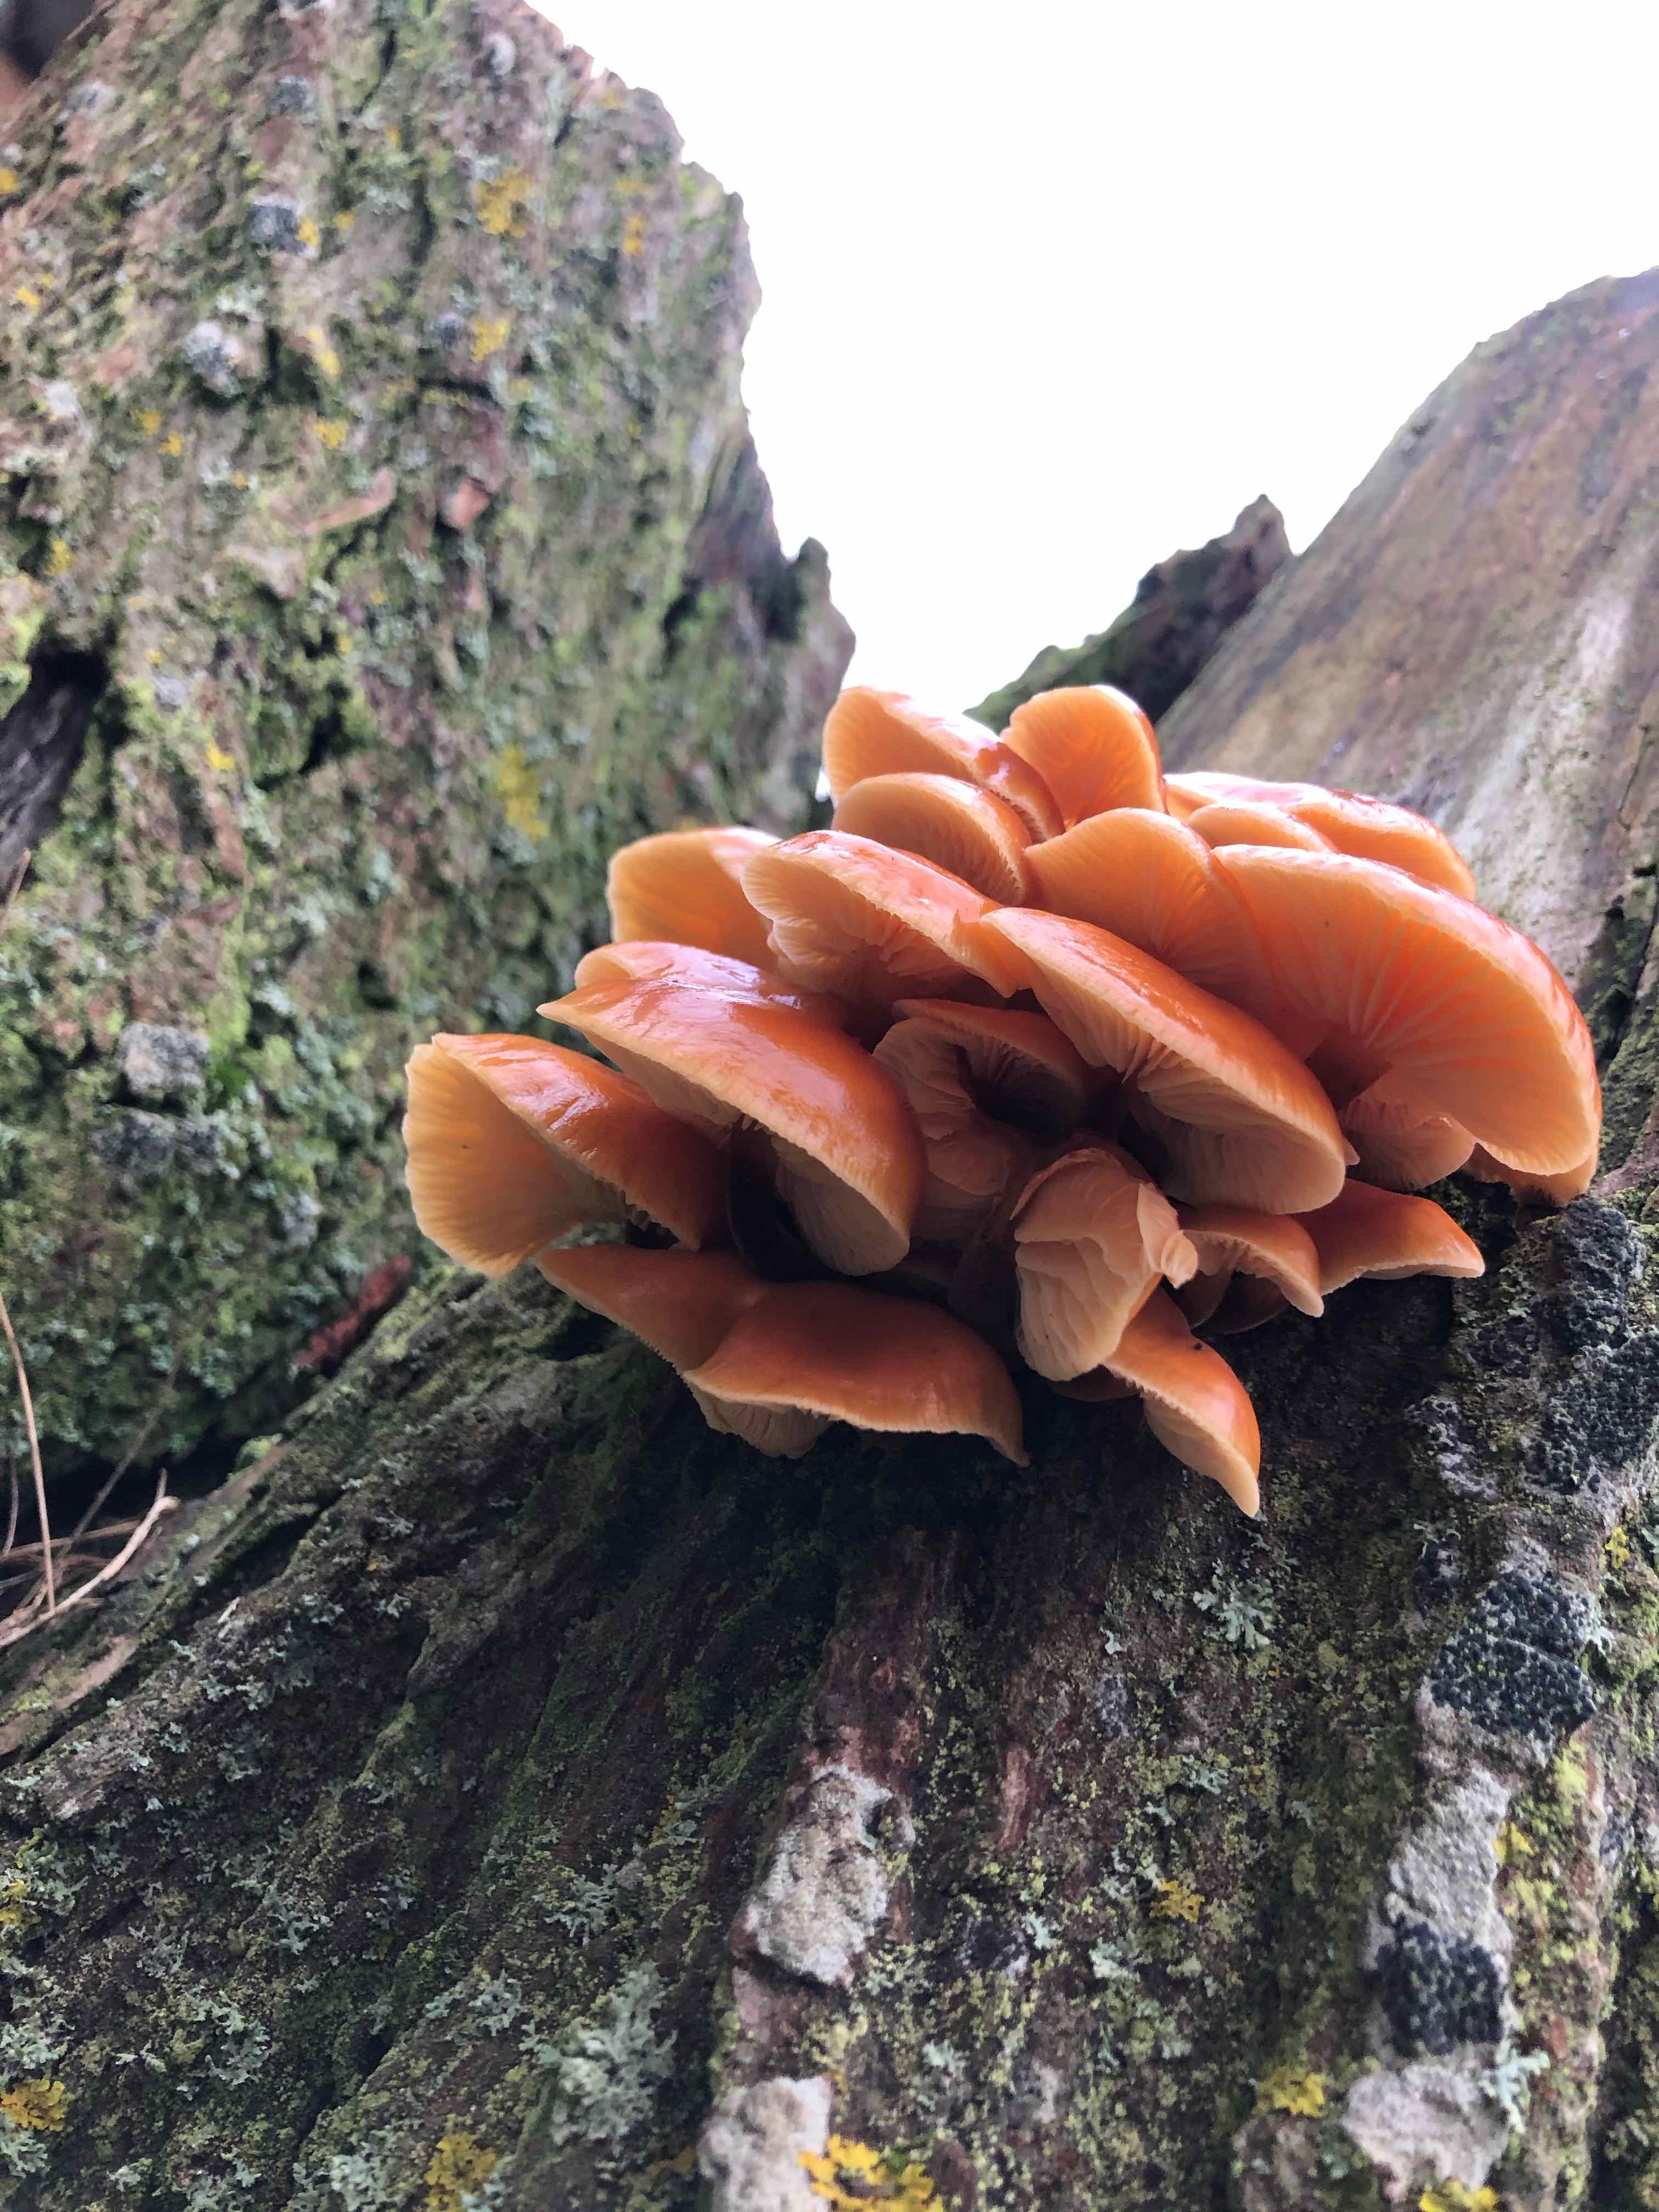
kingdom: Fungi
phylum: Basidiomycota
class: Agaricomycetes
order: Agaricales
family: Physalacriaceae
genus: Flammulina
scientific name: Flammulina
